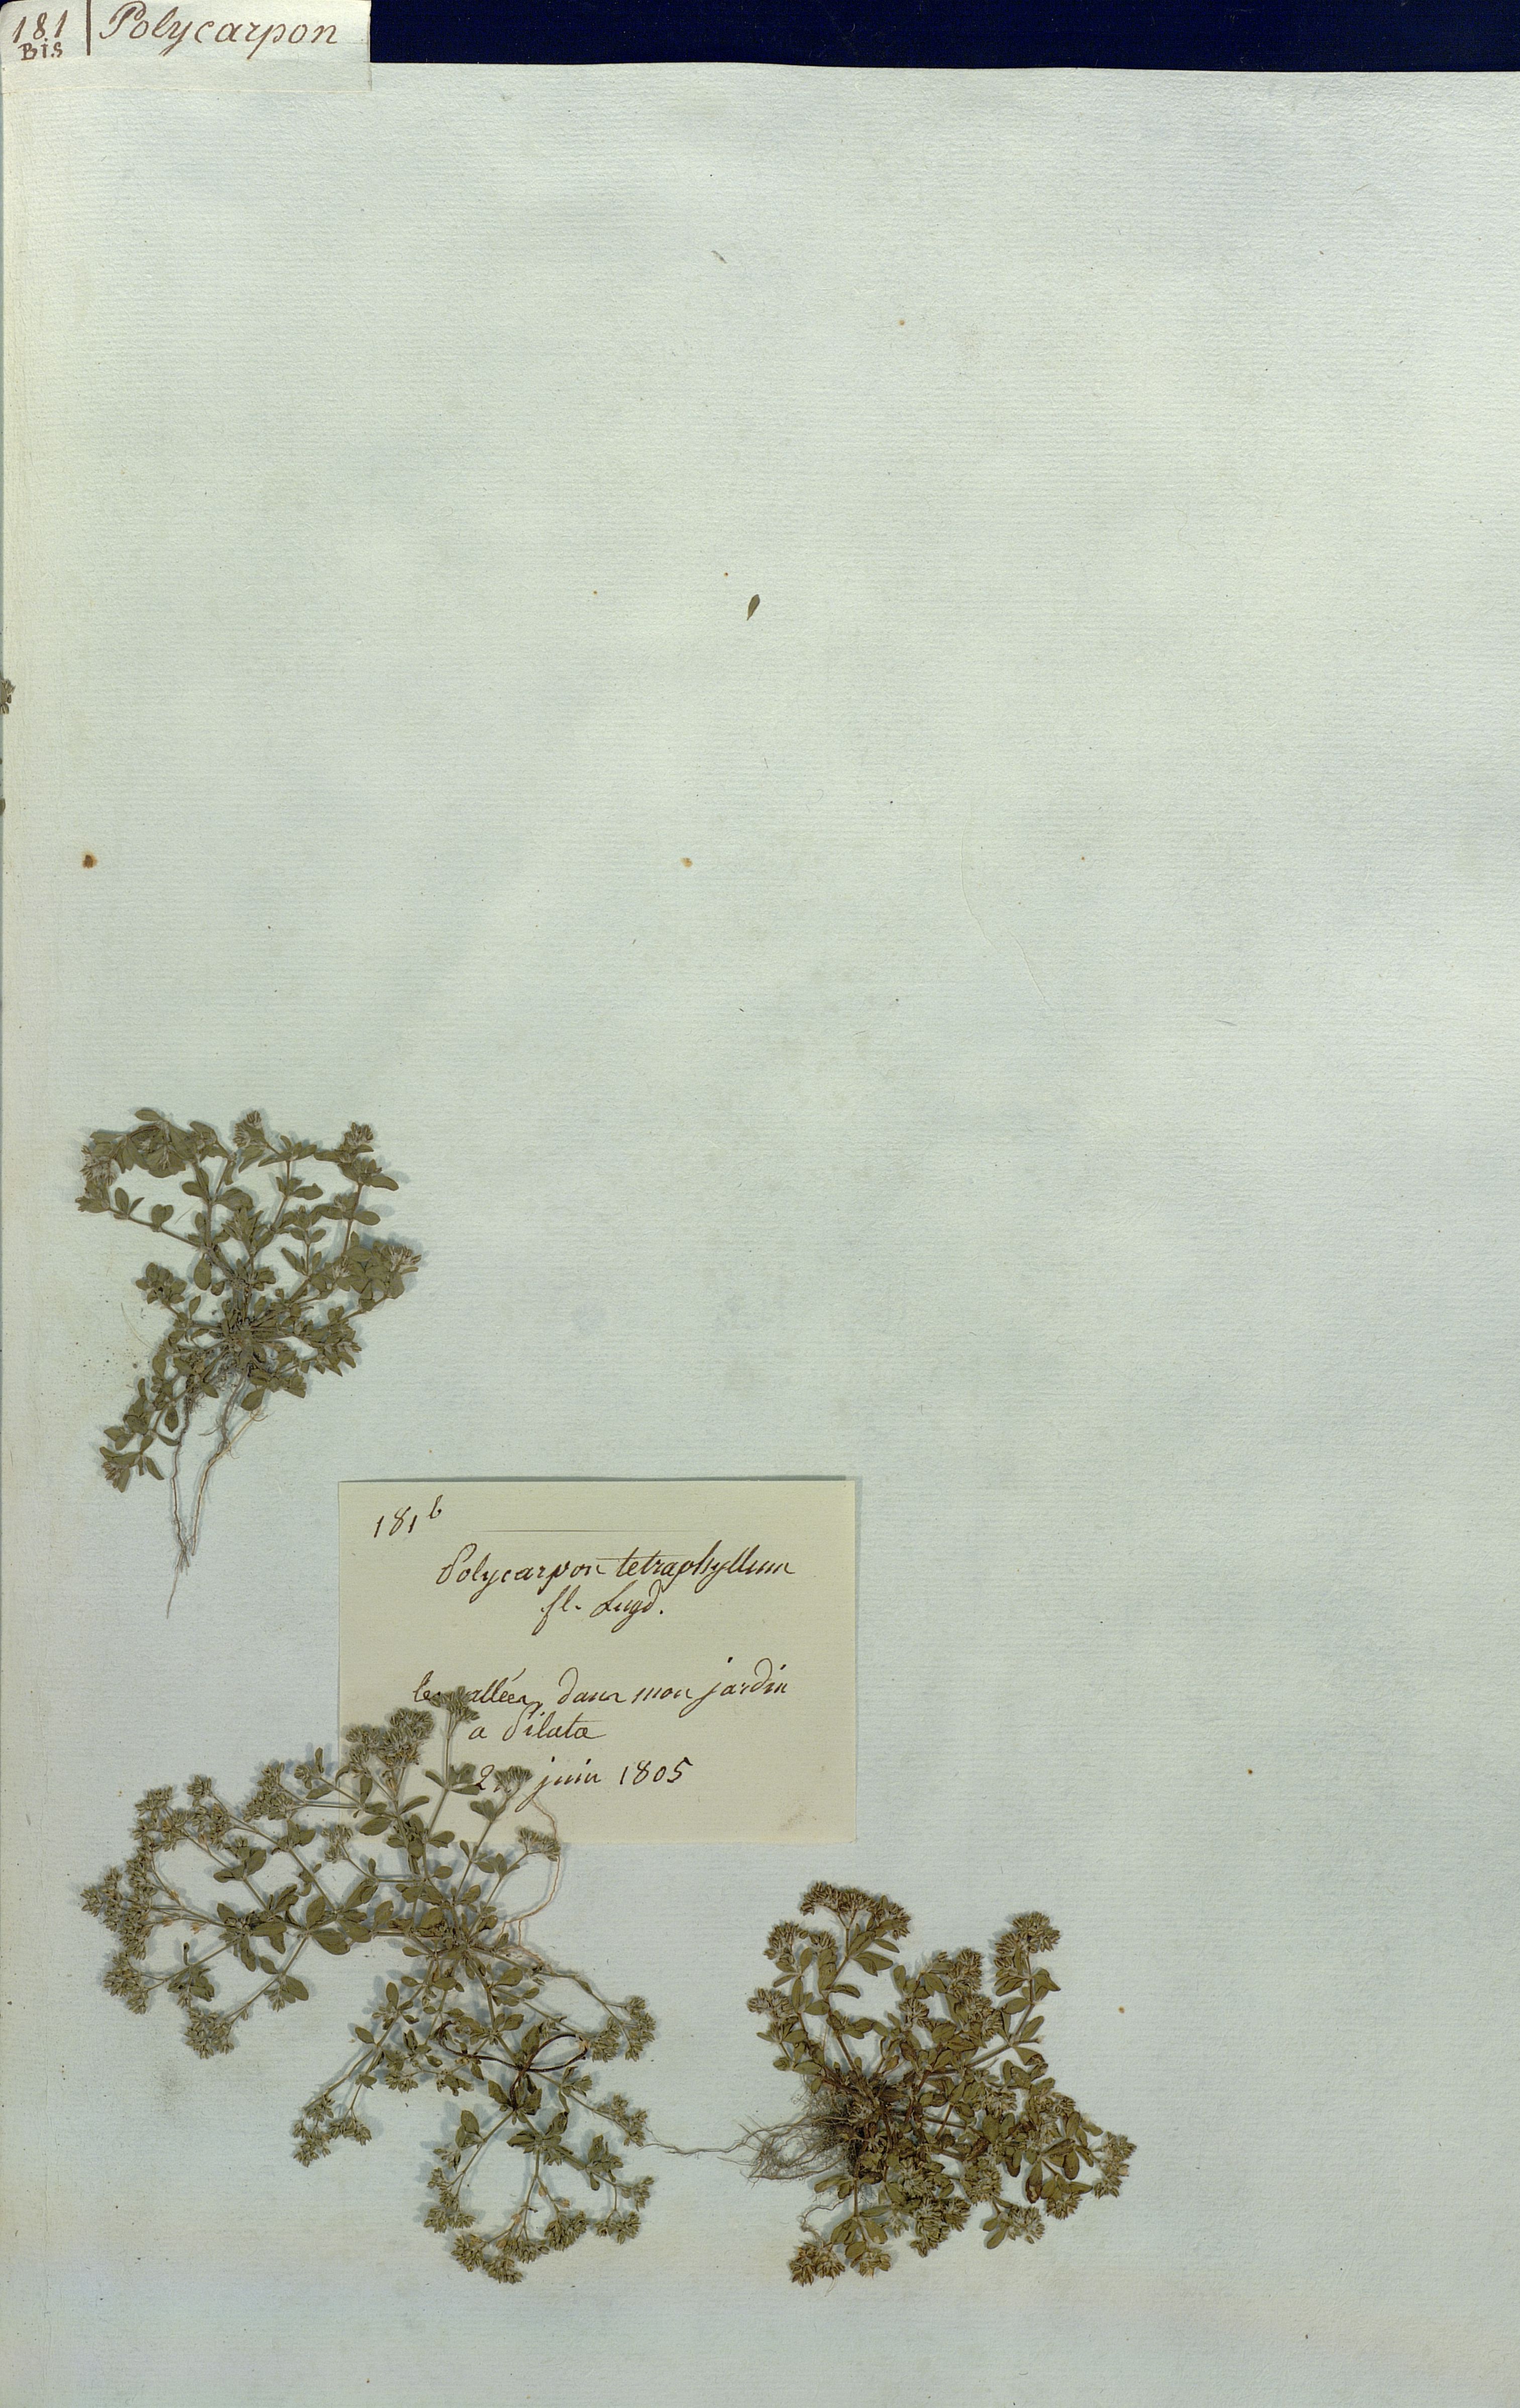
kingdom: Plantae
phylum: Tracheophyta
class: Magnoliopsida
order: Caryophyllales
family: Caryophyllaceae
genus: Polycarpon
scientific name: Polycarpon tetraphyllum
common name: Four-leaved all-seed
